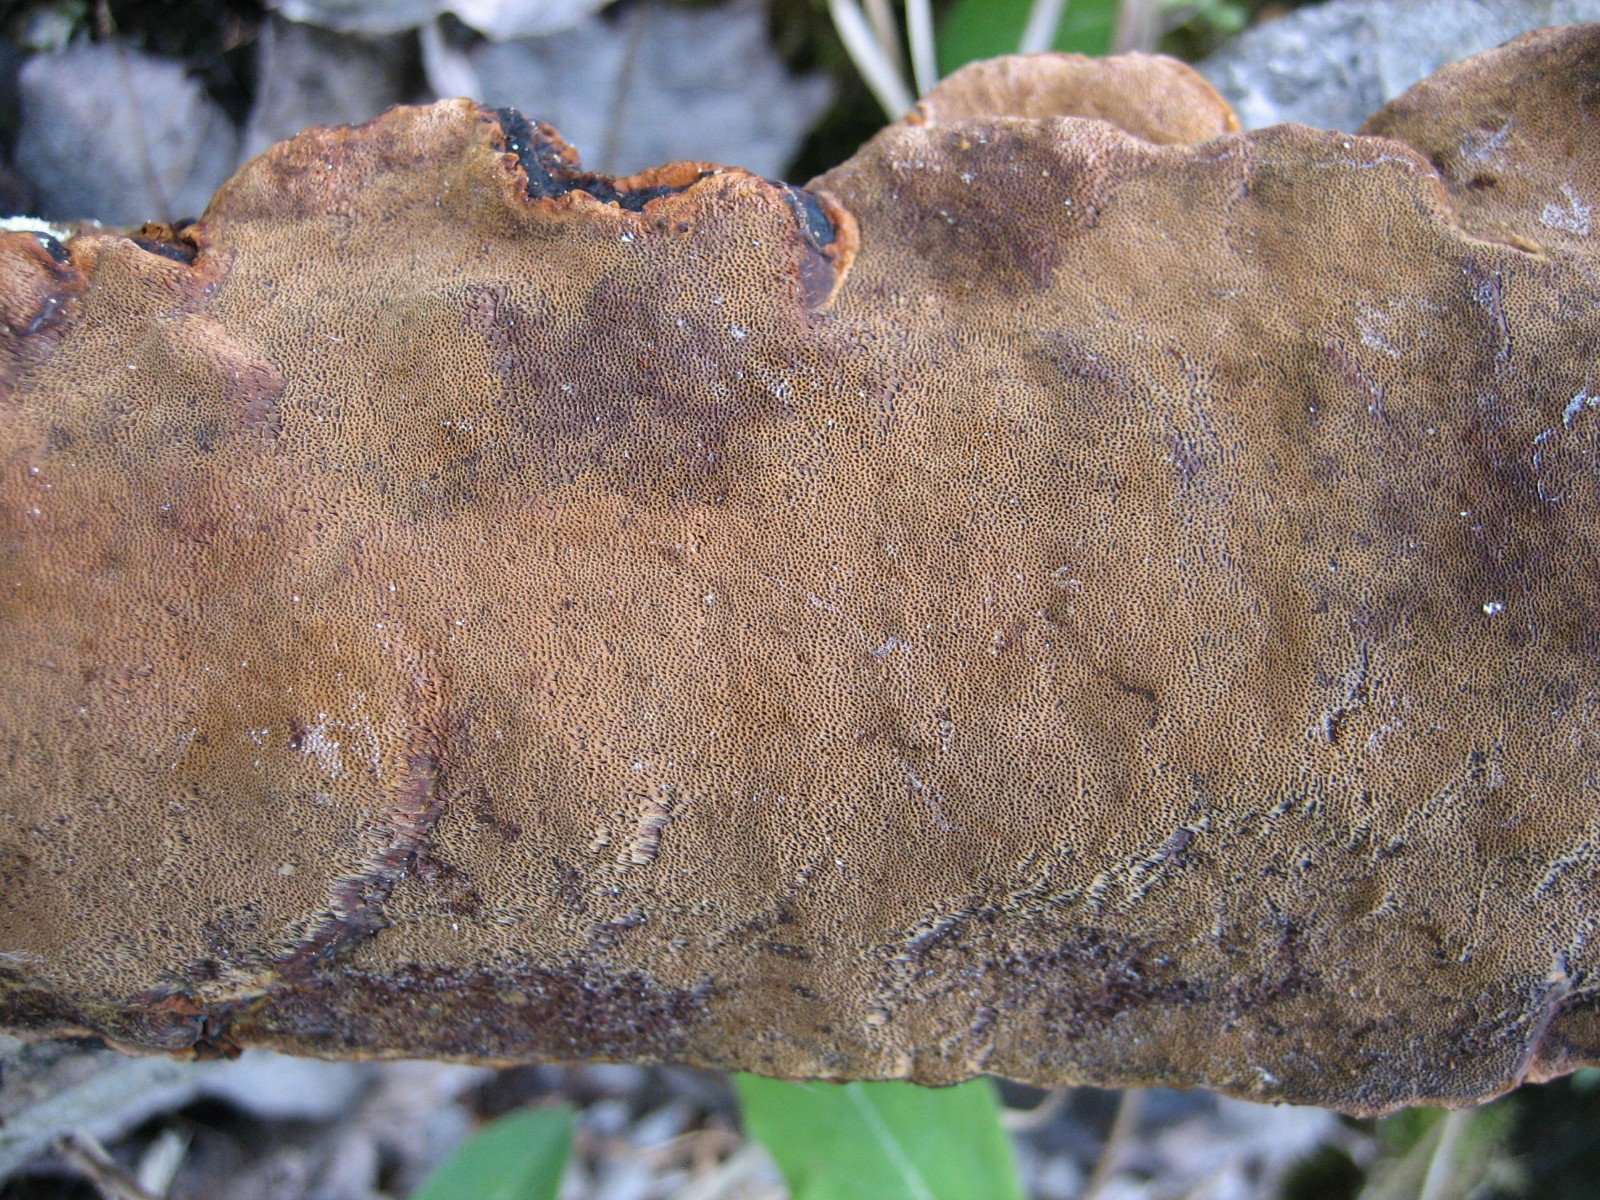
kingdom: Fungi
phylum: Basidiomycota
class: Agaricomycetes
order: Hymenochaetales
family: Hymenochaetaceae
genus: Phellinopsis
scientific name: Phellinopsis conchata
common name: pile-ildporesvamp
